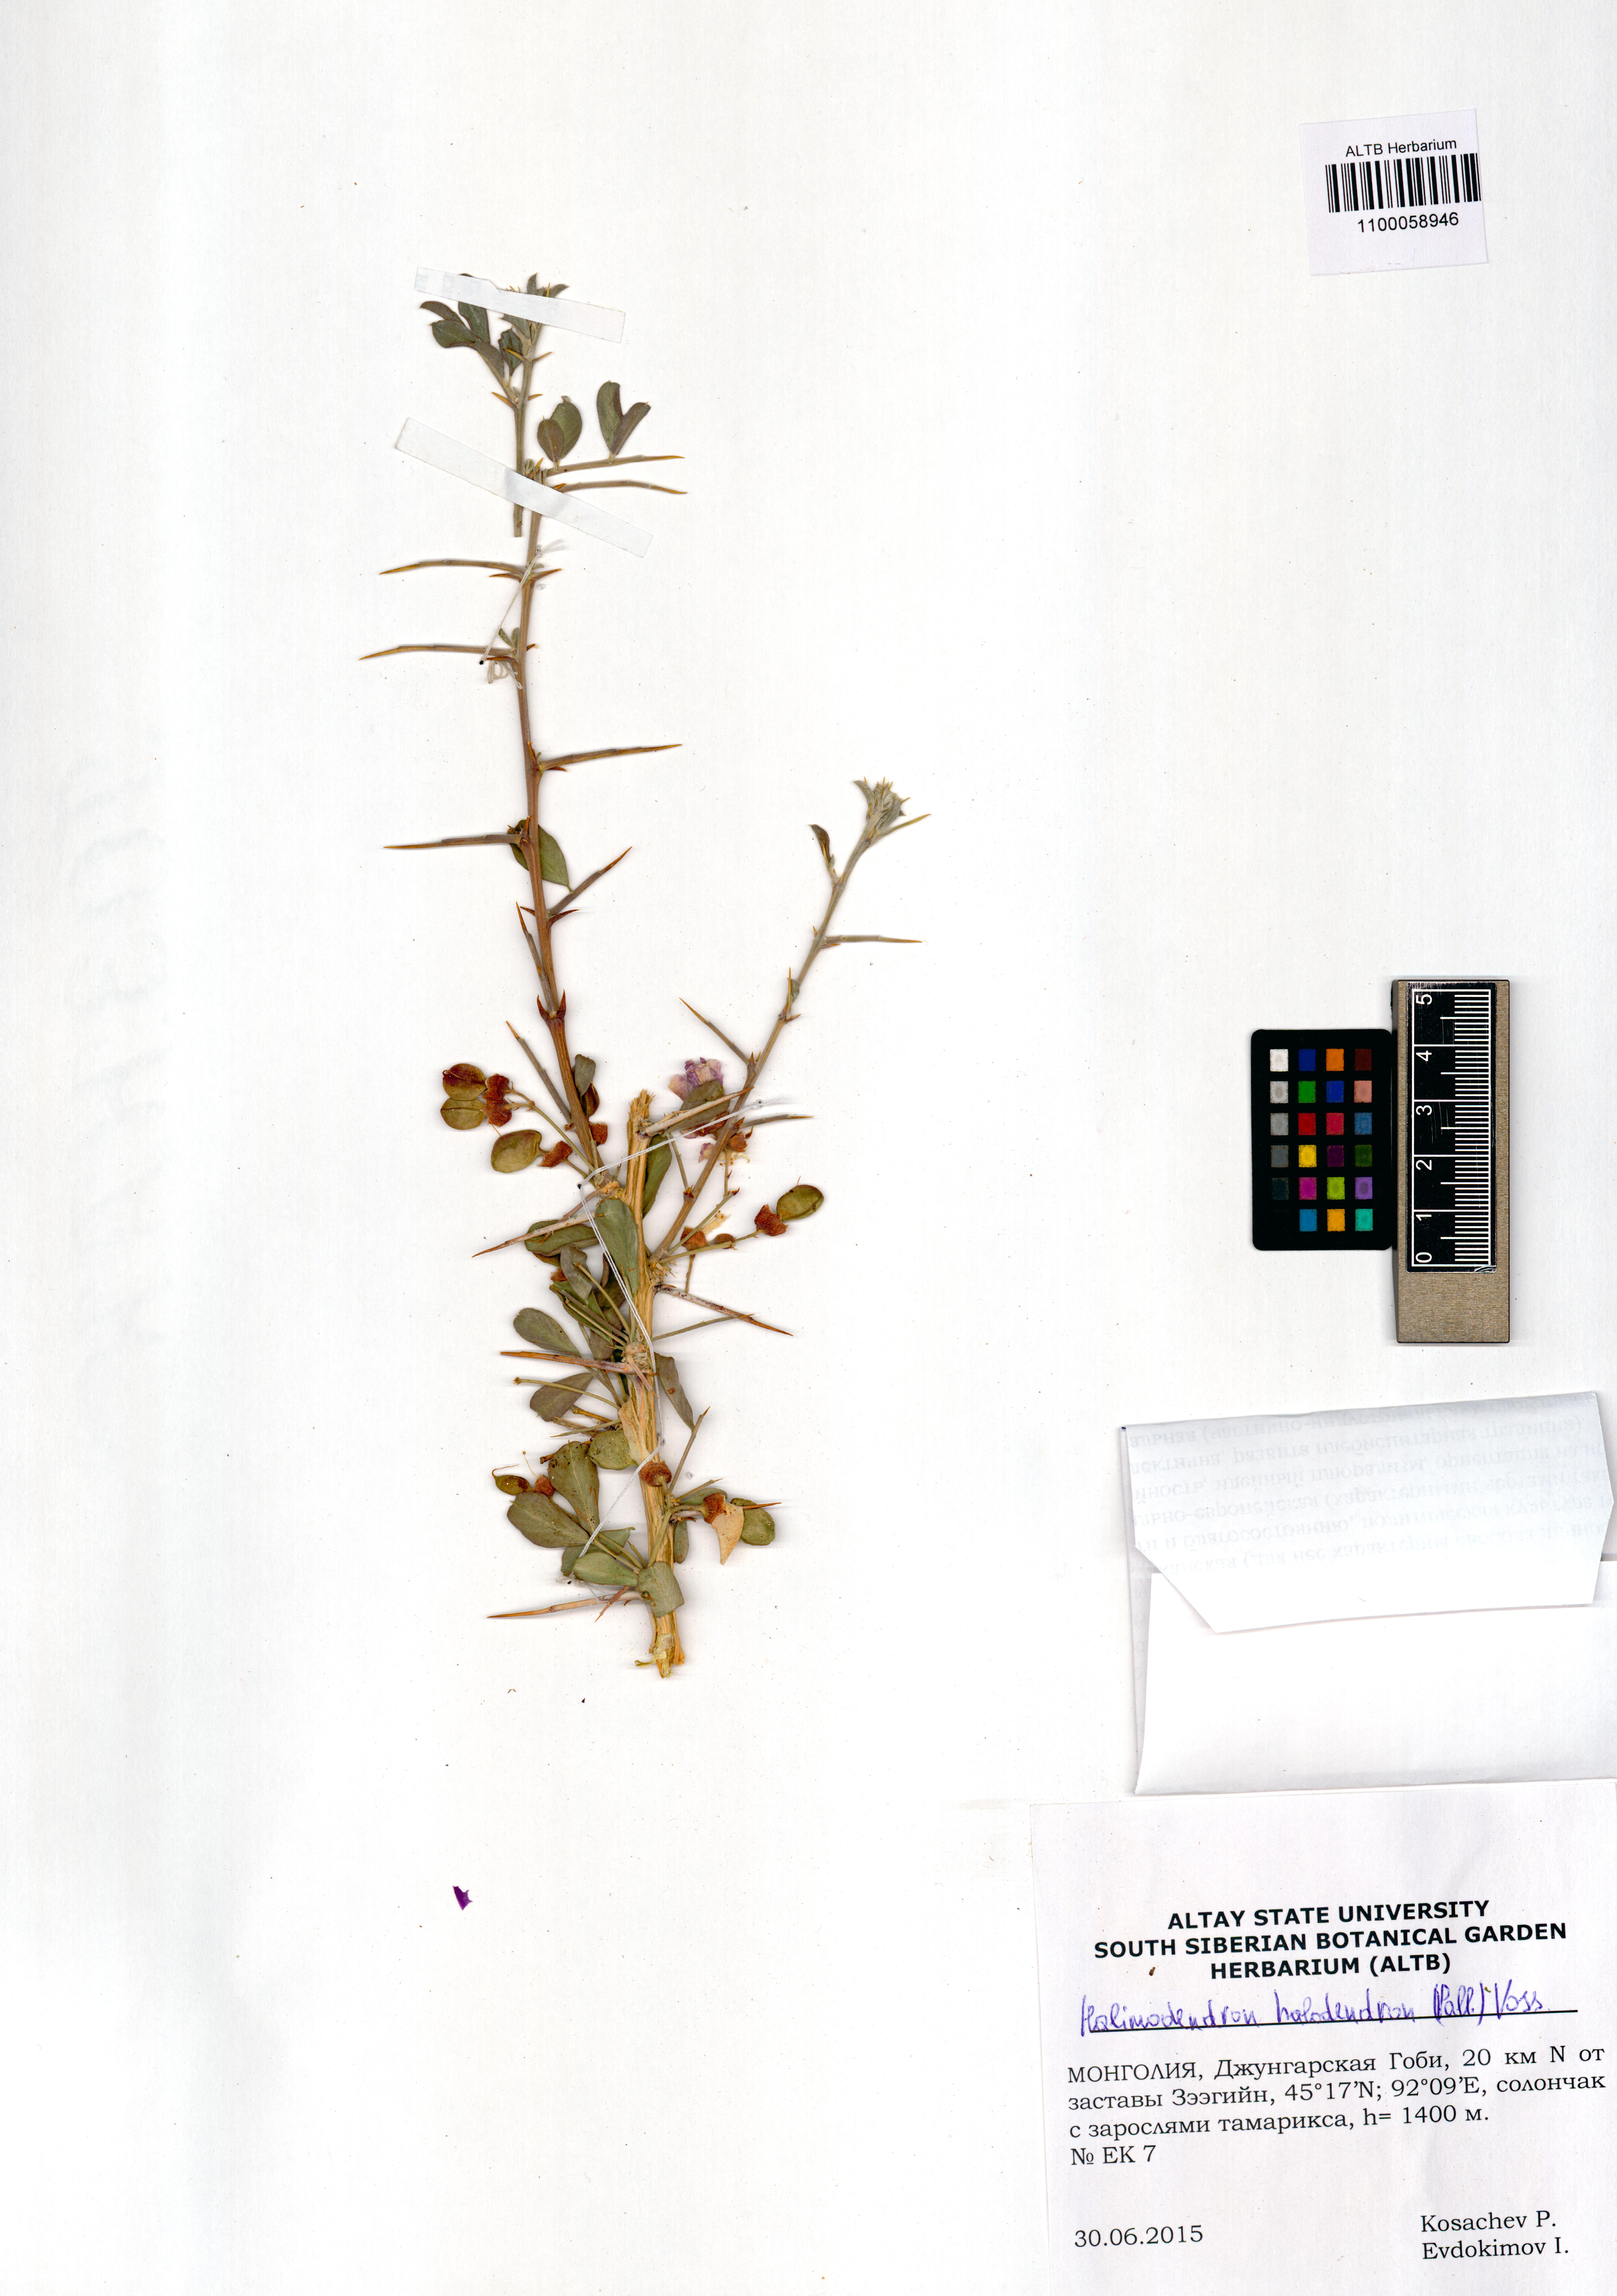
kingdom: Plantae
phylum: Tracheophyta
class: Magnoliopsida
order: Fabales
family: Fabaceae
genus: Caragana
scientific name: Caragana halodendron
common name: Siberian salt-tree
